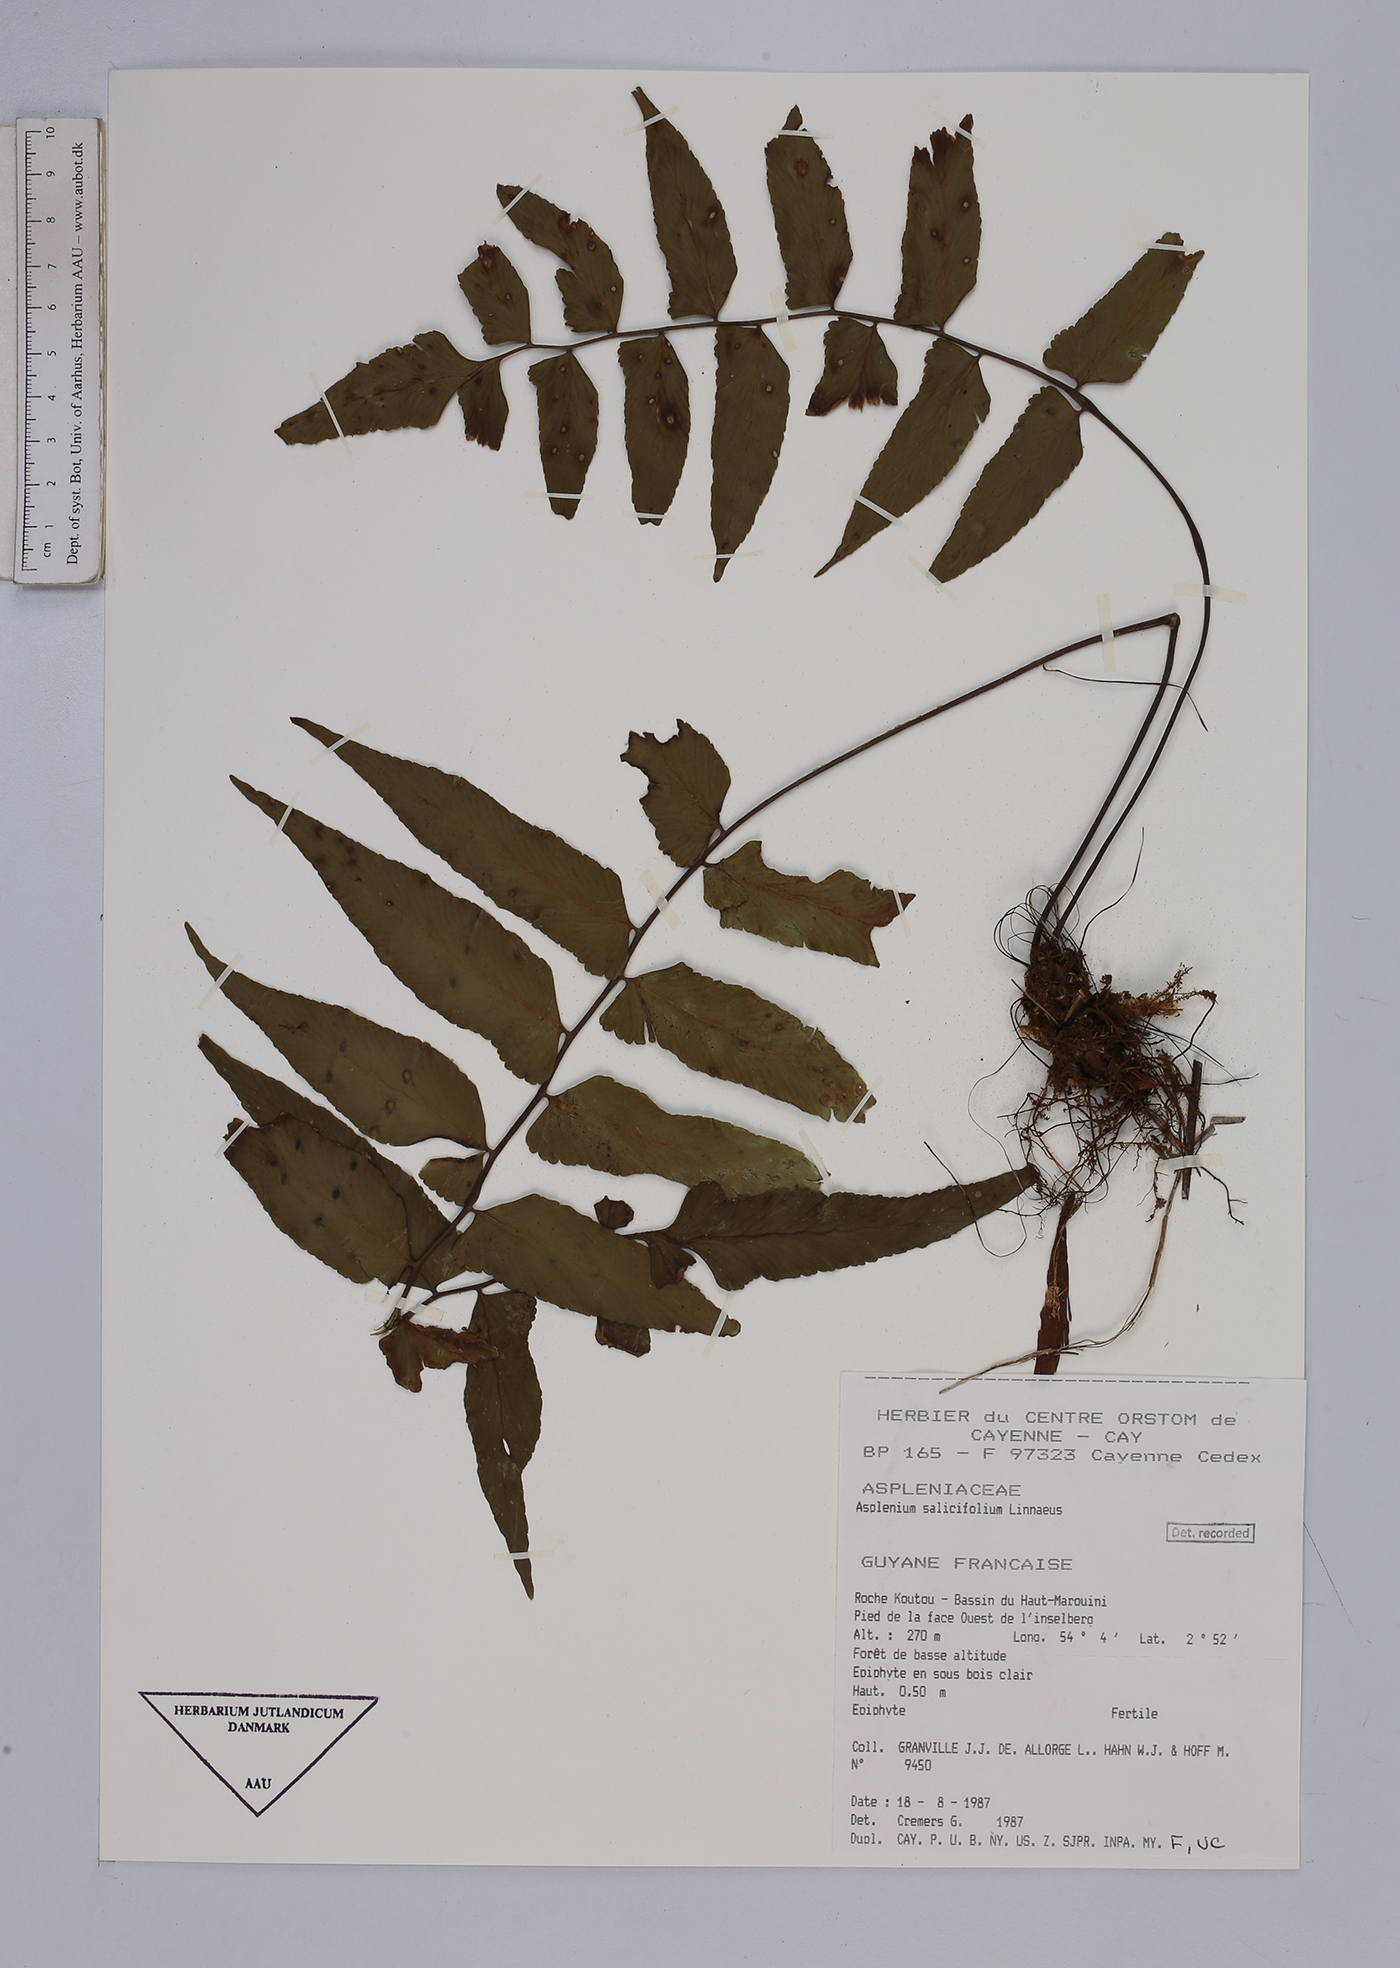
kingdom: Plantae
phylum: Tracheophyta
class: Polypodiopsida
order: Polypodiales
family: Aspleniaceae
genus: Asplenium
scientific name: Asplenium salicifolium
